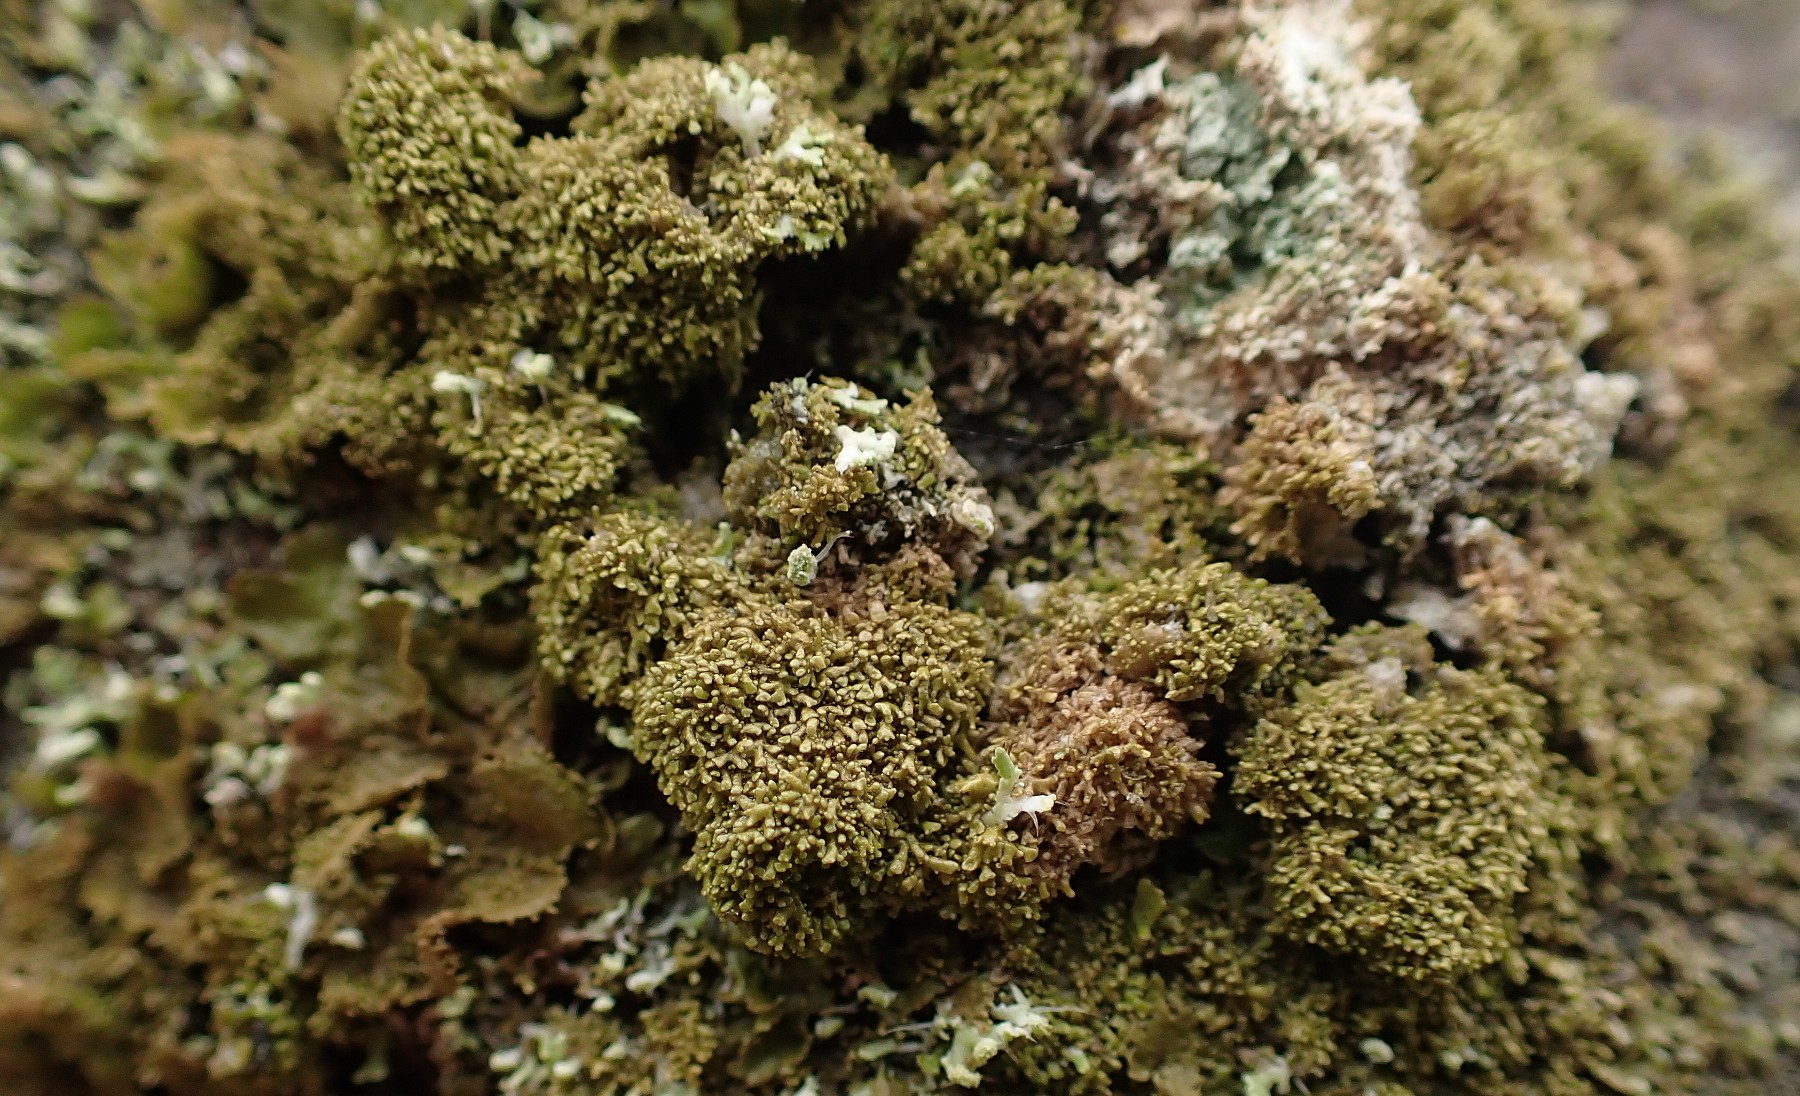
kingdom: Fungi
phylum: Ascomycota
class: Lecanoromycetes
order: Lecanorales
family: Parmeliaceae
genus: Melanohalea
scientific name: Melanohalea exasperatula
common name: kølle-skållav
